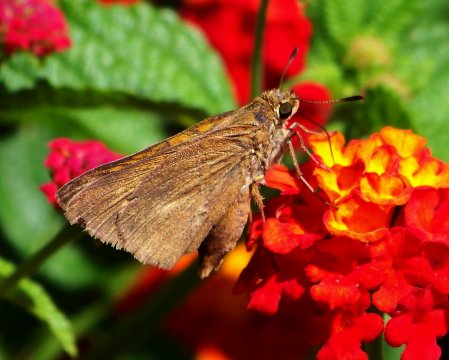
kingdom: Animalia
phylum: Arthropoda
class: Insecta
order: Lepidoptera
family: Hesperiidae
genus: Euphyes
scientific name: Euphyes dion
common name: Dion Skipper
